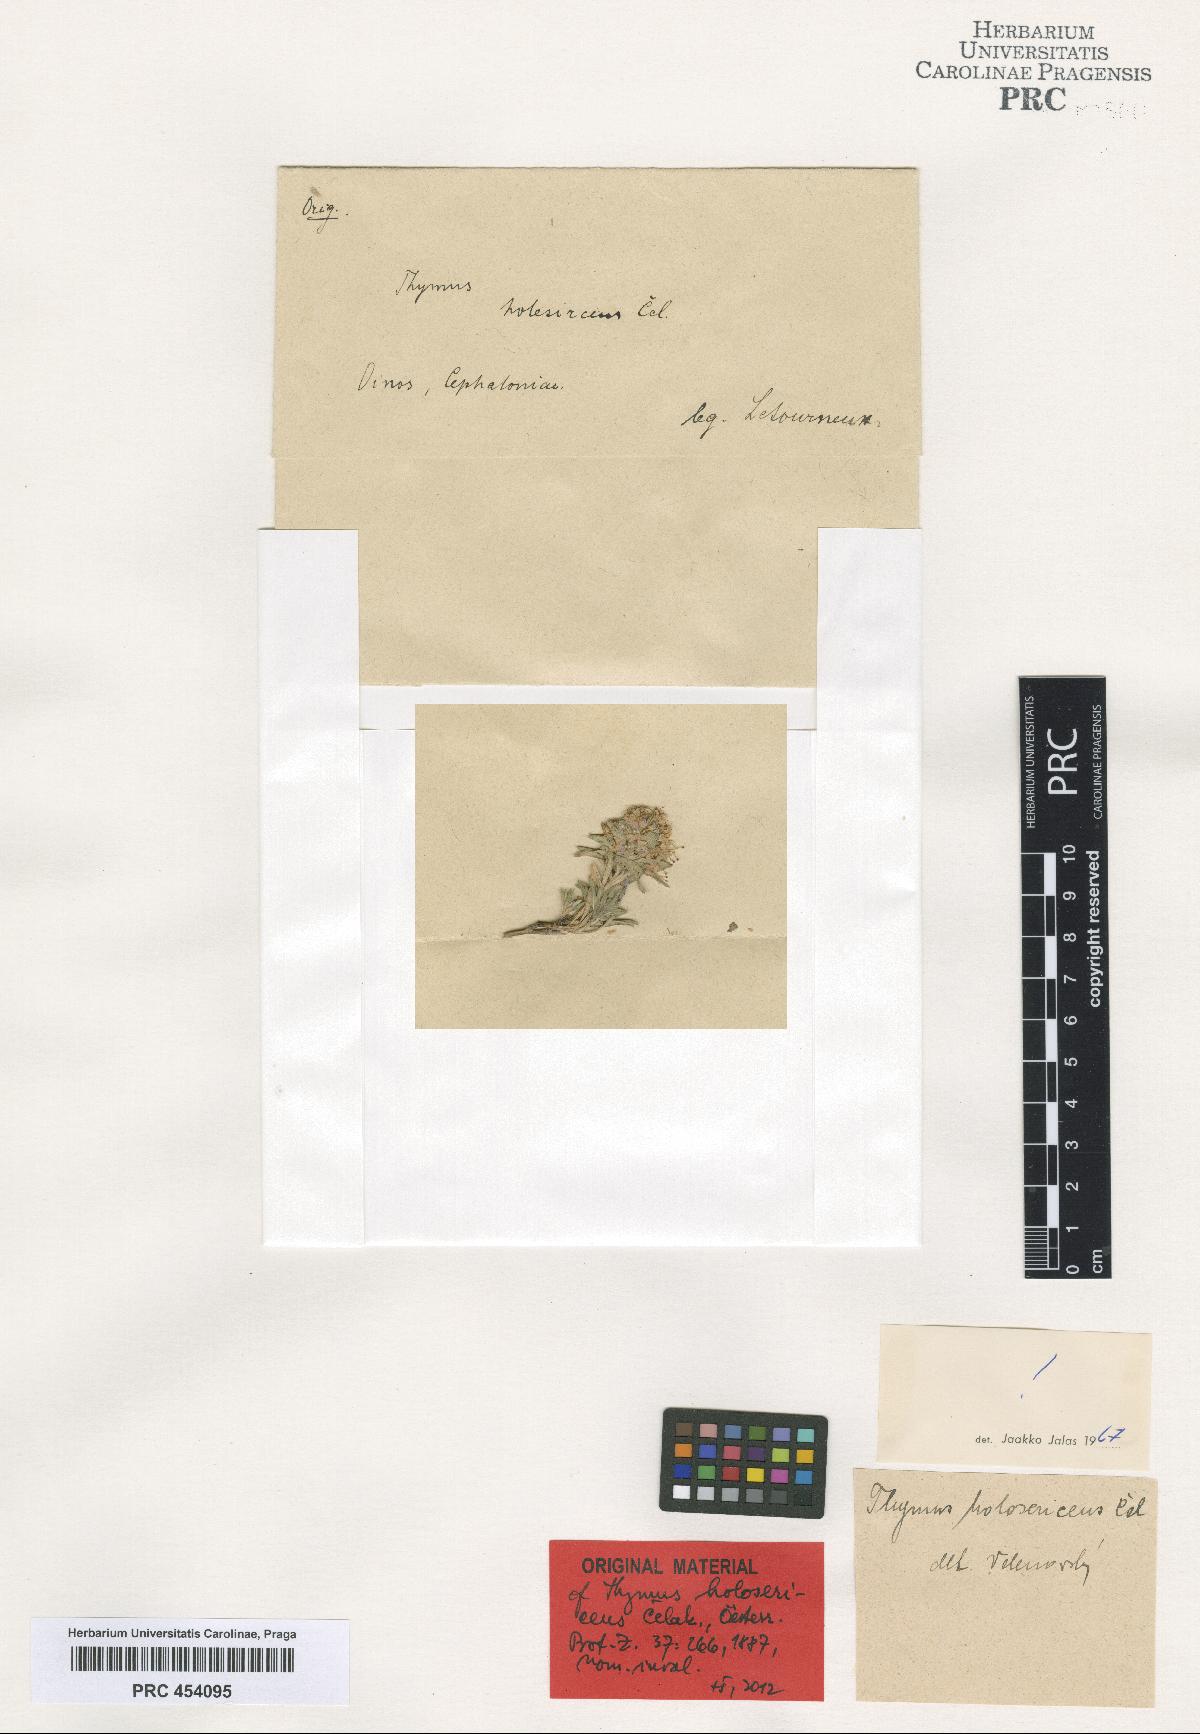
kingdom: Plantae
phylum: Tracheophyta
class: Magnoliopsida
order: Lamiales
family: Lamiaceae
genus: Thymus
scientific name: Thymus holosericeus
